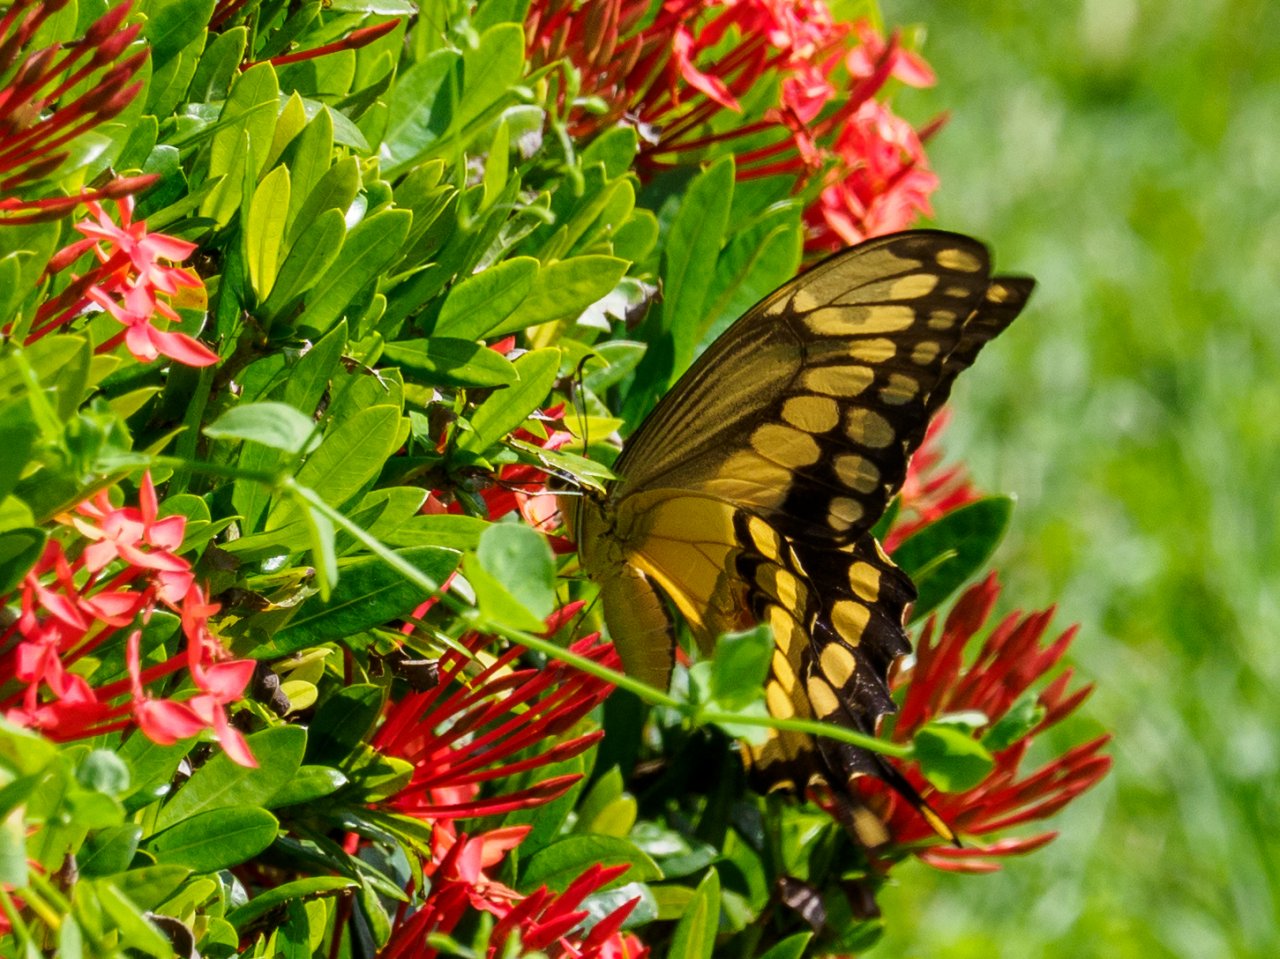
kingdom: Animalia
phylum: Arthropoda
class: Insecta
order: Lepidoptera
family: Papilionidae
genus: Papilio
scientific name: Papilio rumiko
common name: Western Giant Swallowtail
